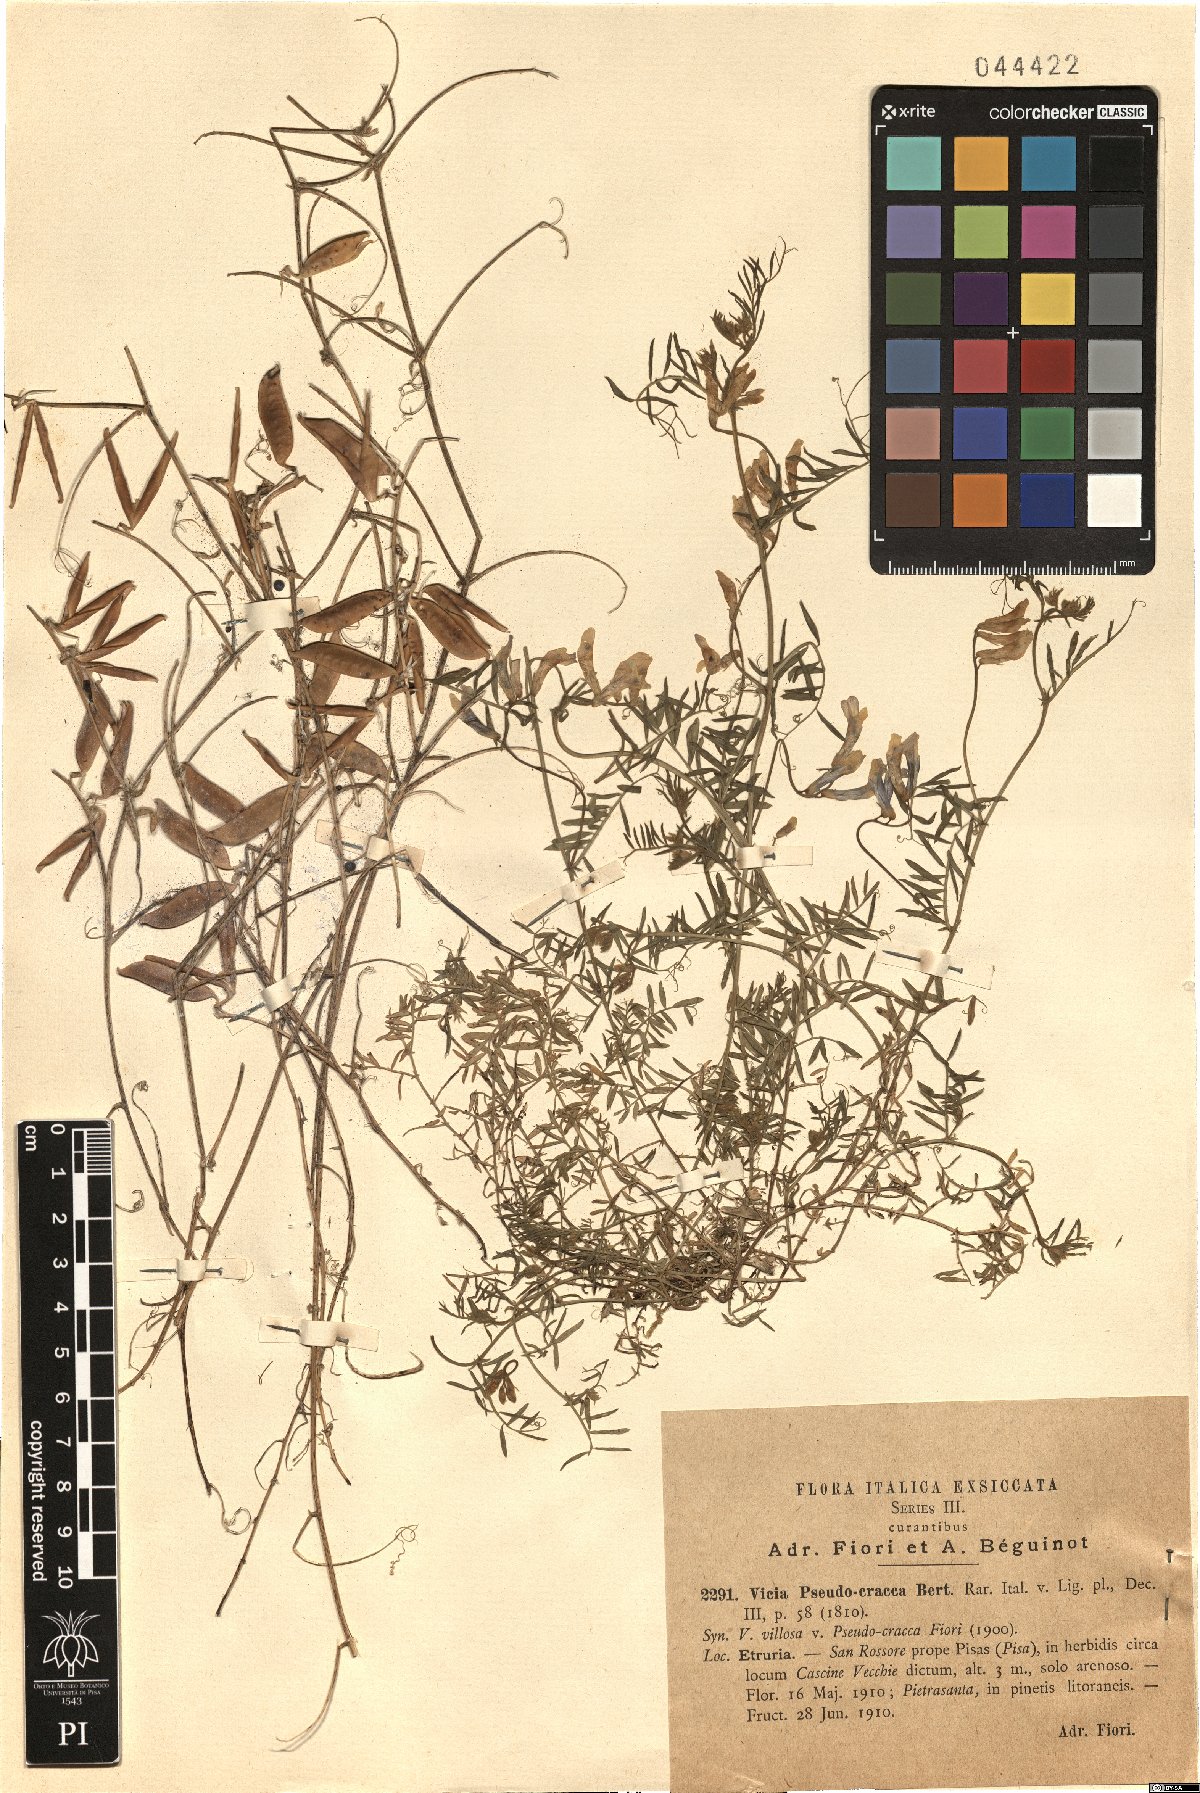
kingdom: Plantae
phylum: Tracheophyta
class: Magnoliopsida
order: Fabales
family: Fabaceae
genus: Vicia
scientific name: Vicia villosa
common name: Fodder vetch
